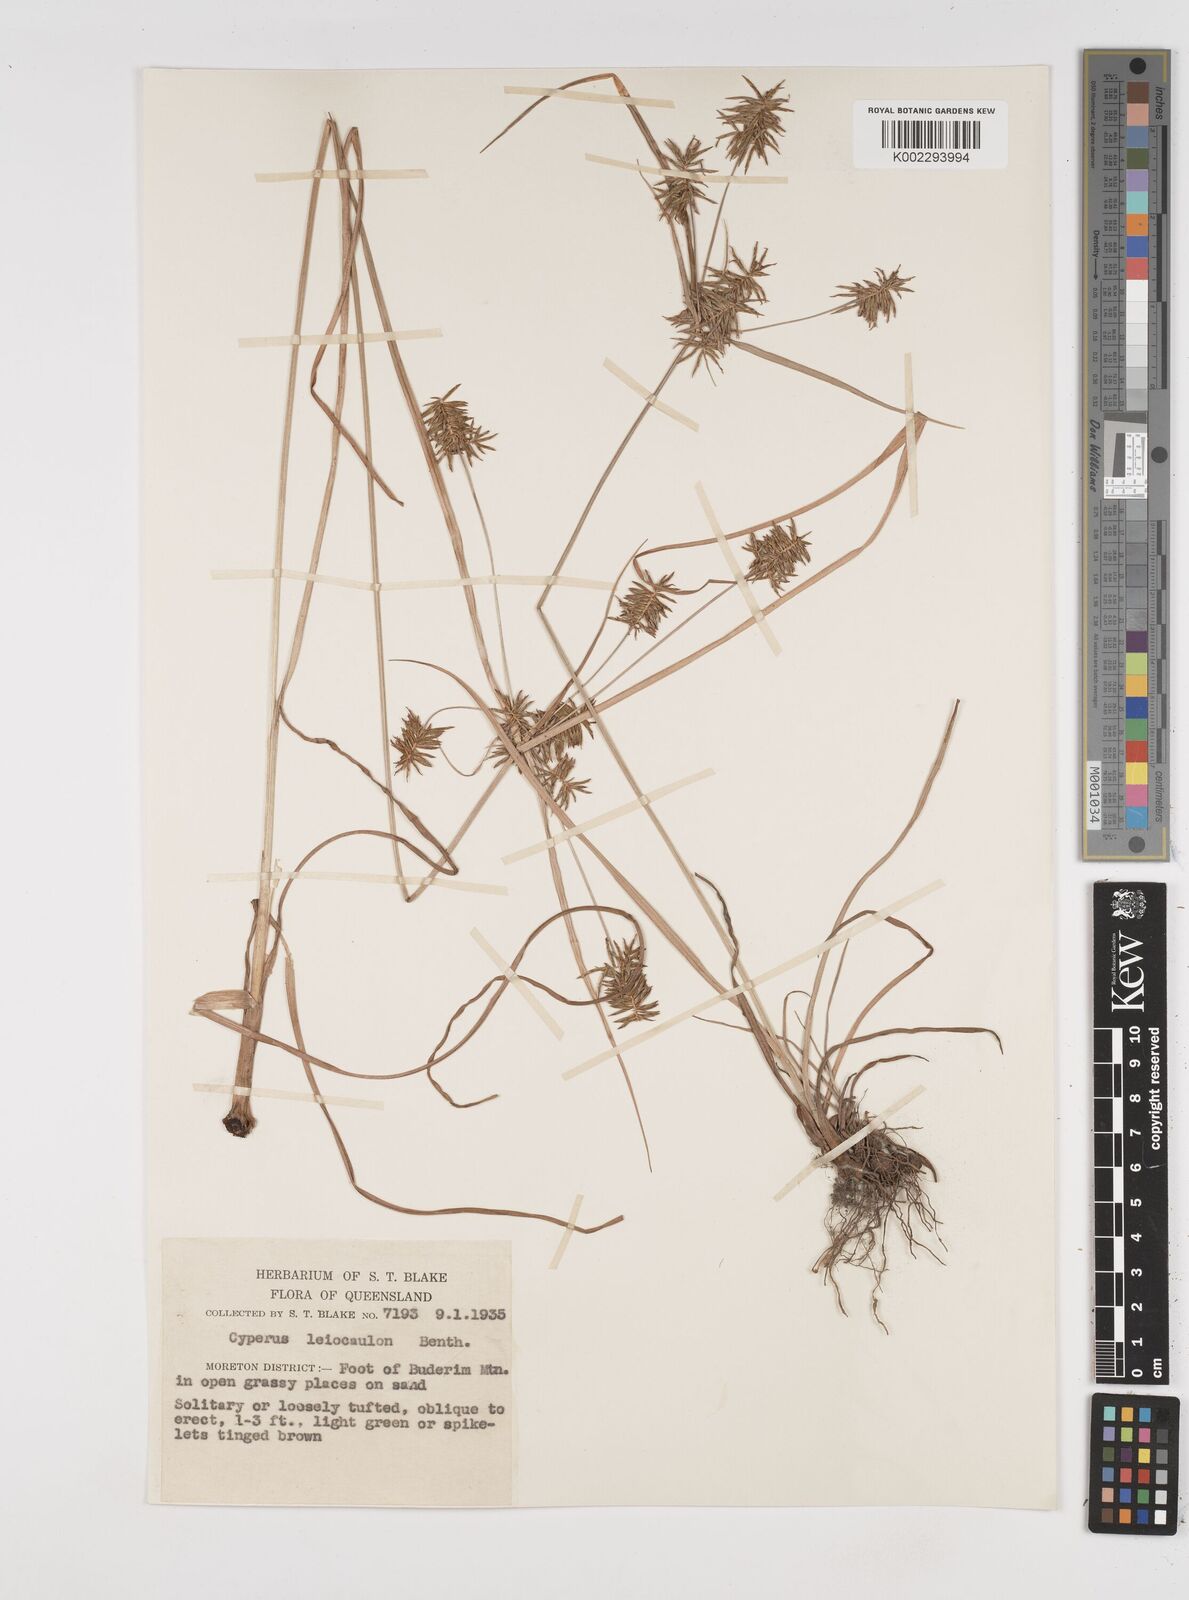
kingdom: Plantae
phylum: Tracheophyta
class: Liliopsida
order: Poales
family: Cyperaceae
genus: Cyperus
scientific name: Cyperus leiocaulon
